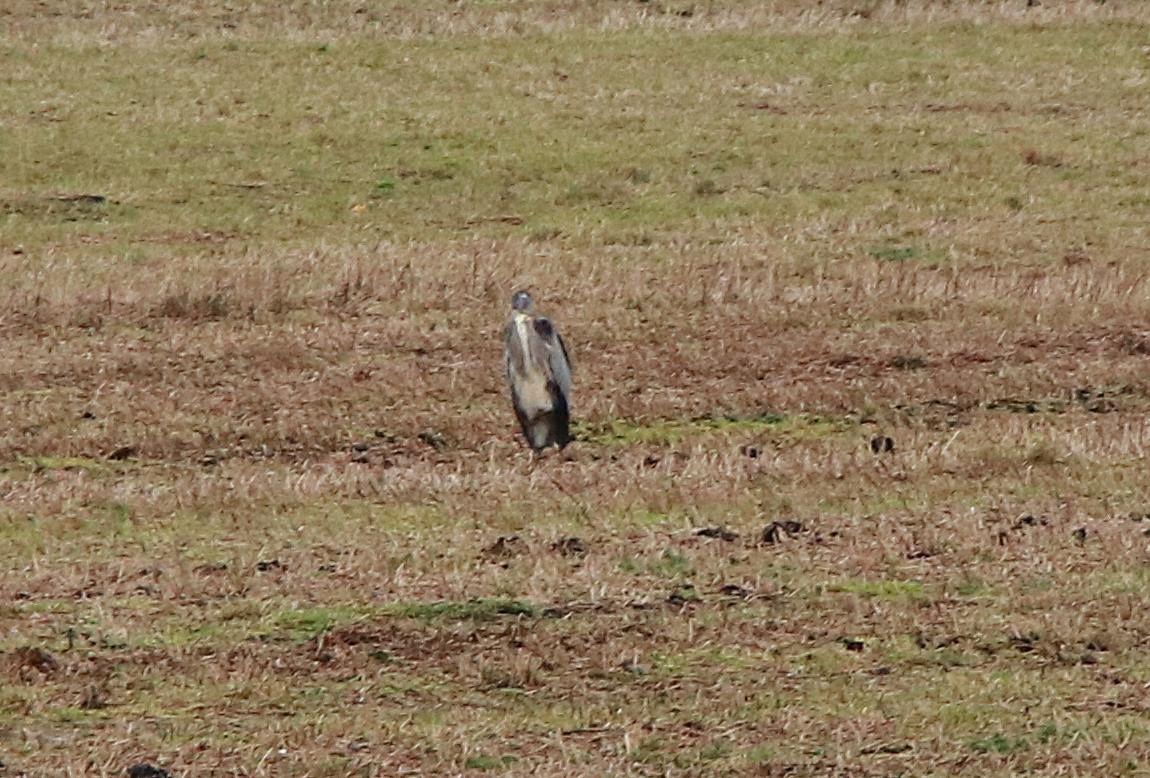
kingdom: Animalia
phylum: Chordata
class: Aves
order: Pelecaniformes
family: Ardeidae
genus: Ardea
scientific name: Ardea cinerea
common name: Fiskehejre
